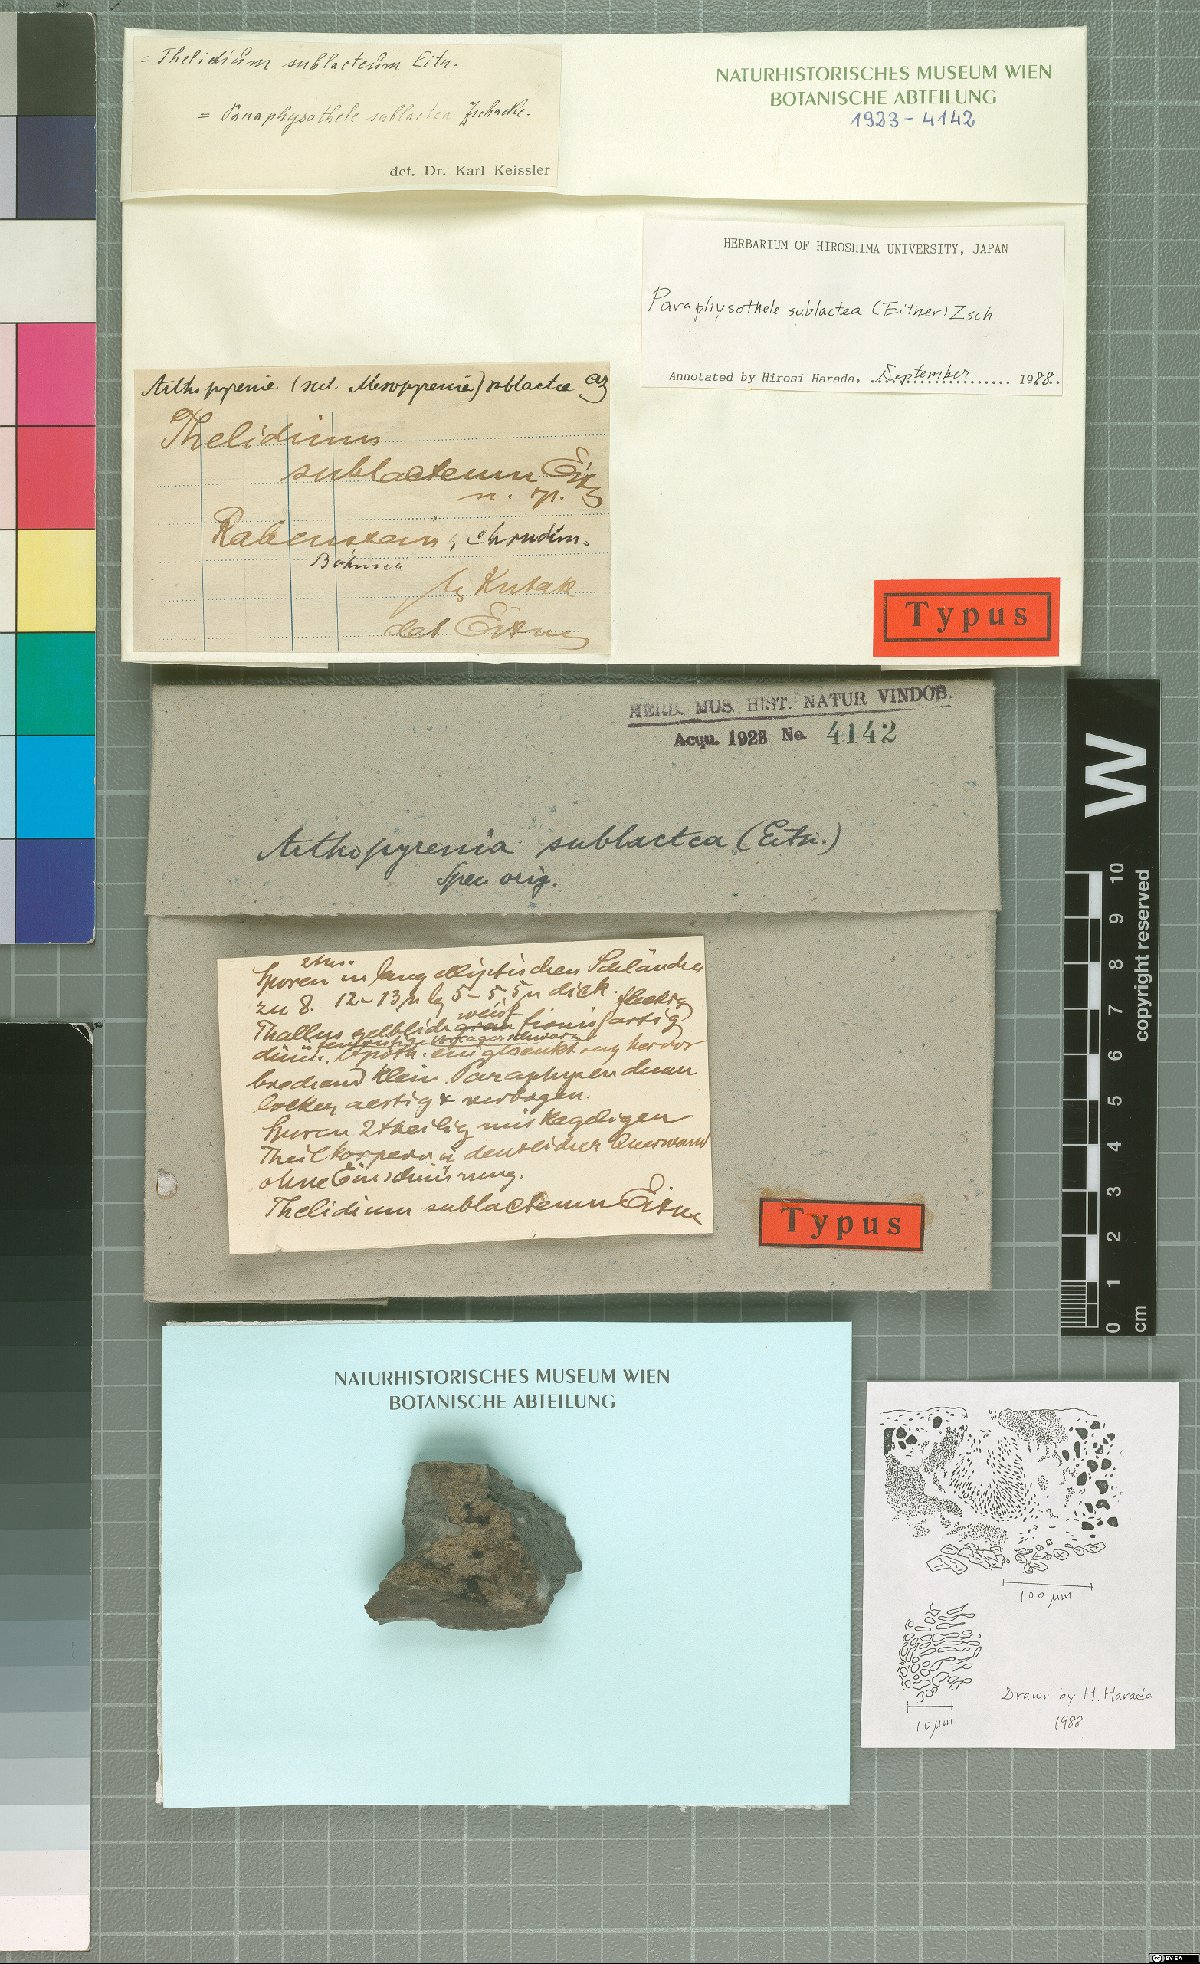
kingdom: Fungi
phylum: Ascomycota
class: Eurotiomycetes
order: Verrucariales
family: Verrucariaceae
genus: Thelidium
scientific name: Thelidium sublacteum
